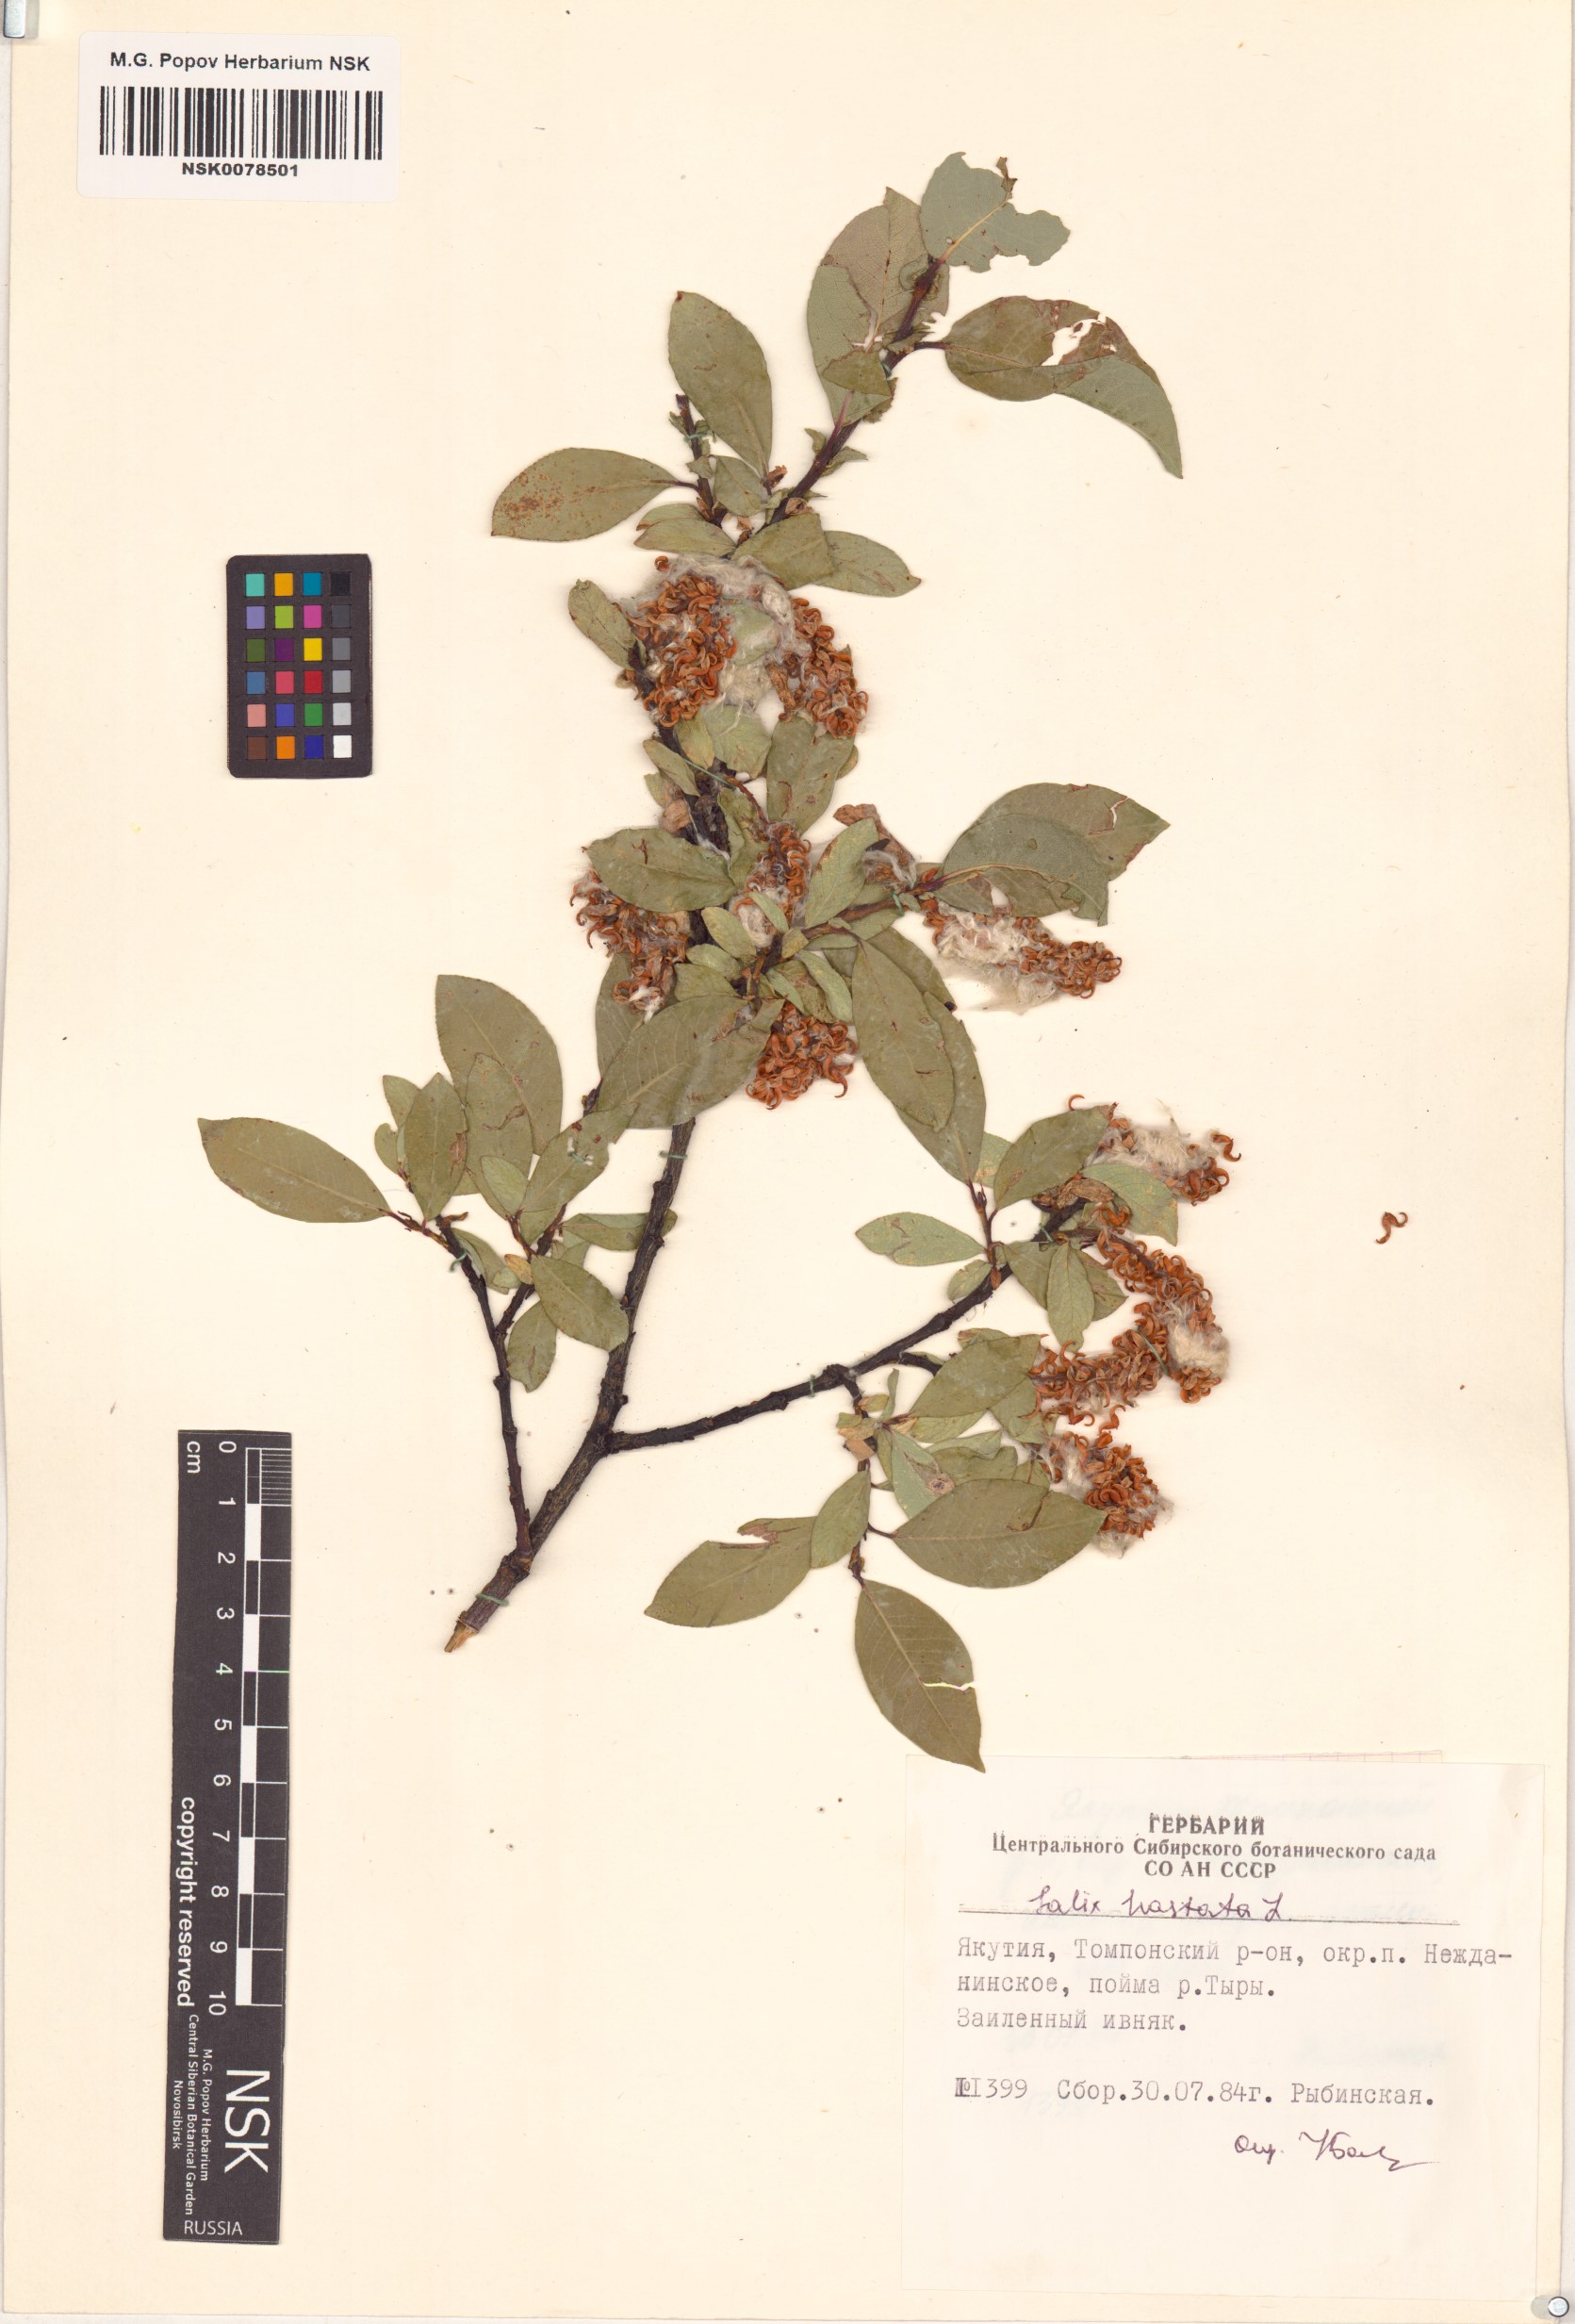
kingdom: Plantae
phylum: Tracheophyta
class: Magnoliopsida
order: Malpighiales
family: Salicaceae
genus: Salix
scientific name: Salix hastata
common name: Halberd willow
